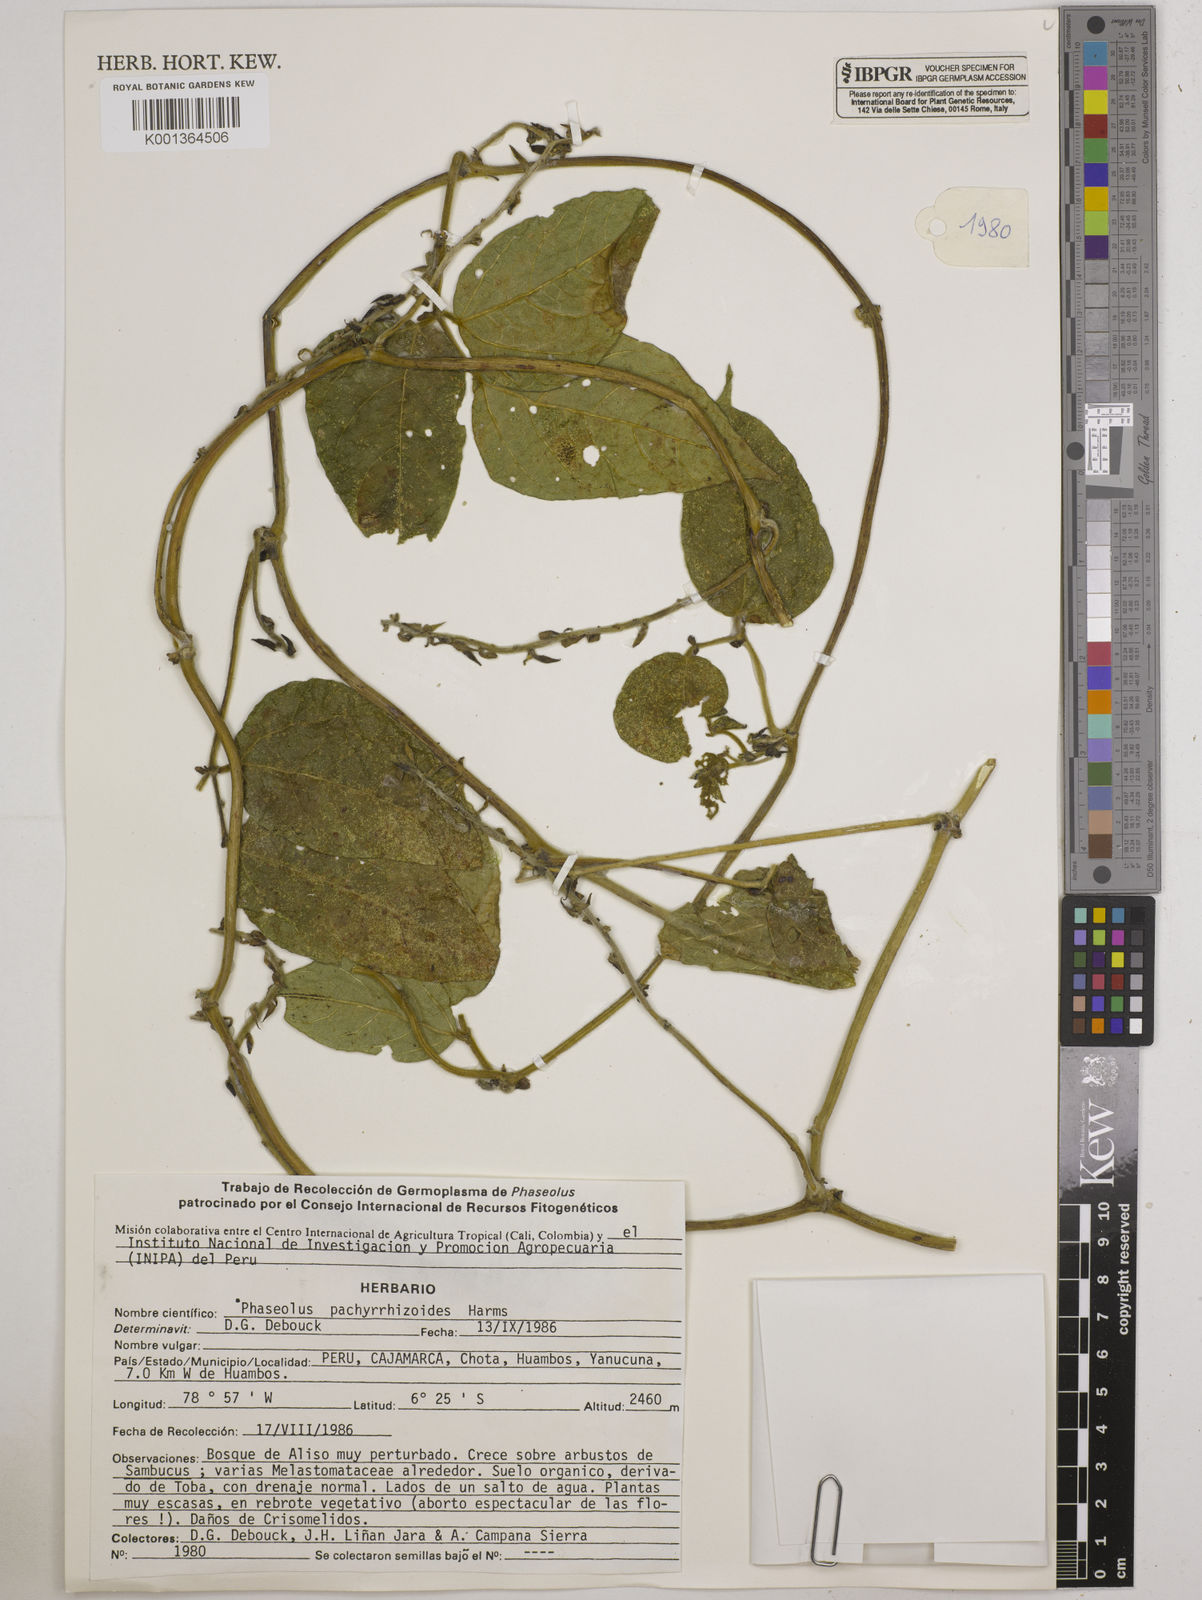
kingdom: Plantae
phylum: Tracheophyta
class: Magnoliopsida
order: Fabales
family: Fabaceae
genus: Ramirezella
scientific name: Ramirezella strobilophora
